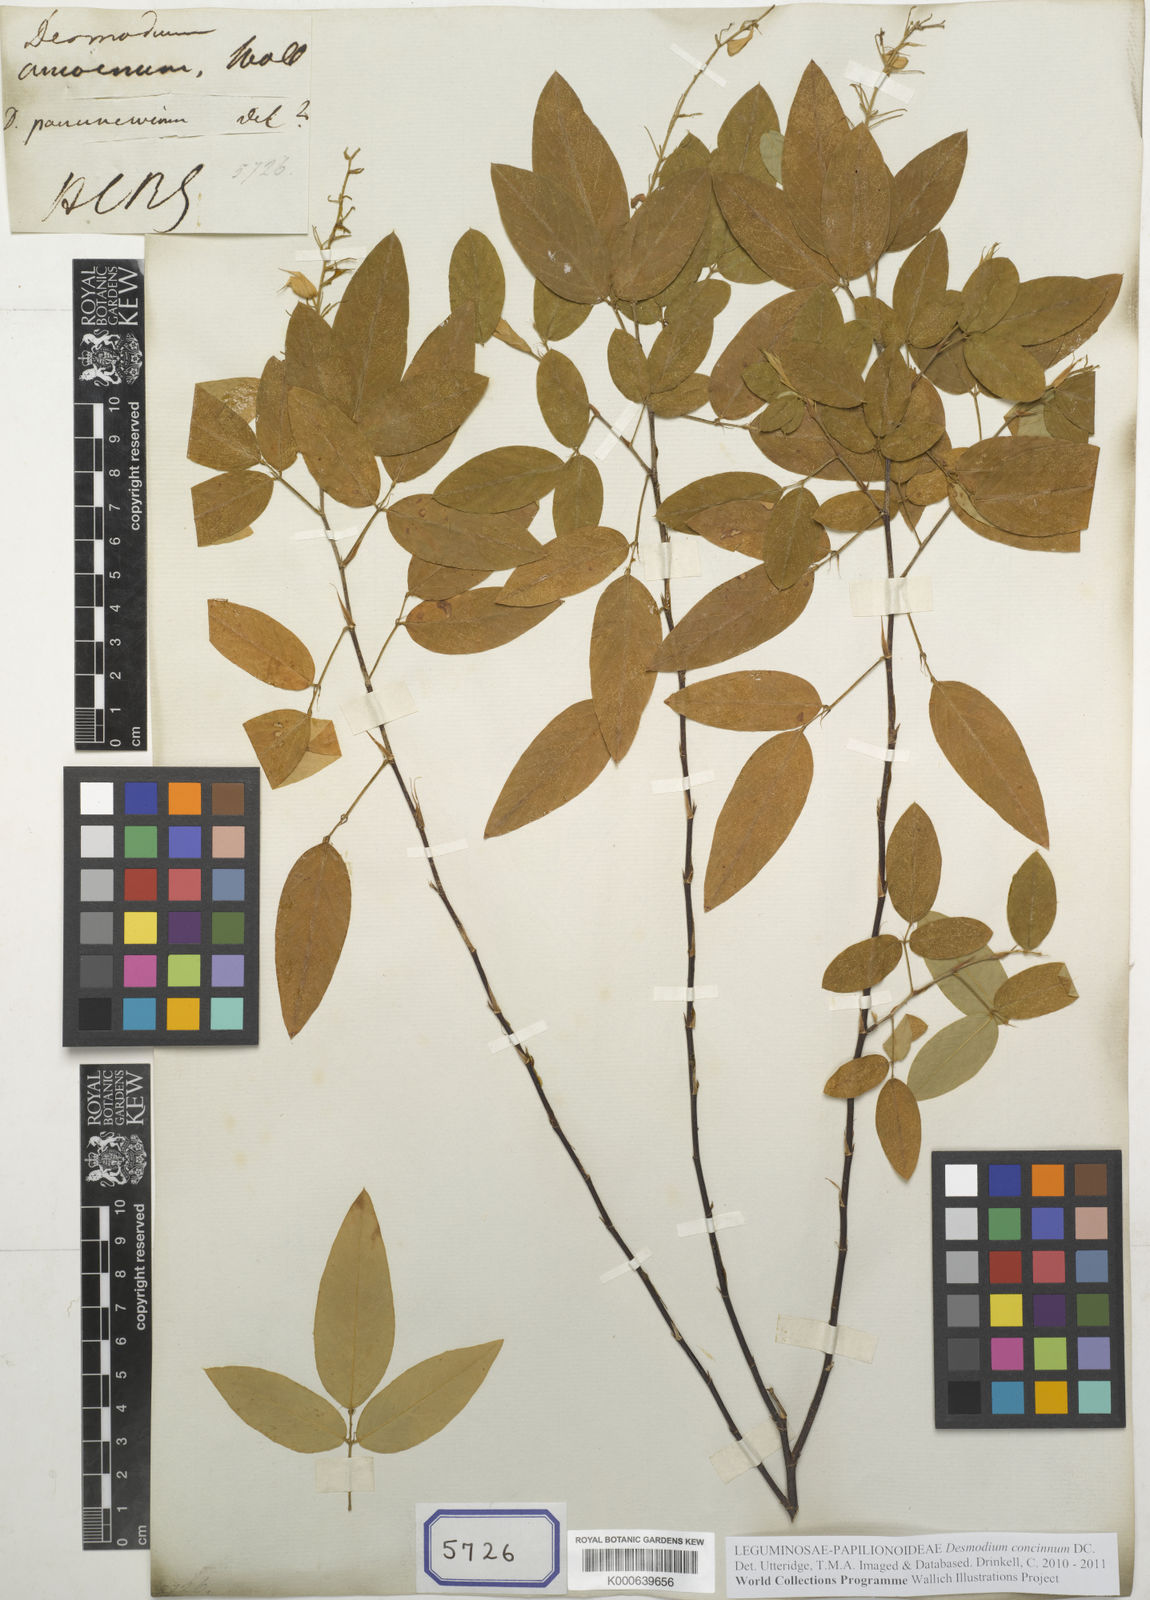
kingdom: Plantae
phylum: Tracheophyta
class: Magnoliopsida
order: Fabales
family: Fabaceae
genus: Desmodium
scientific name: Desmodium
